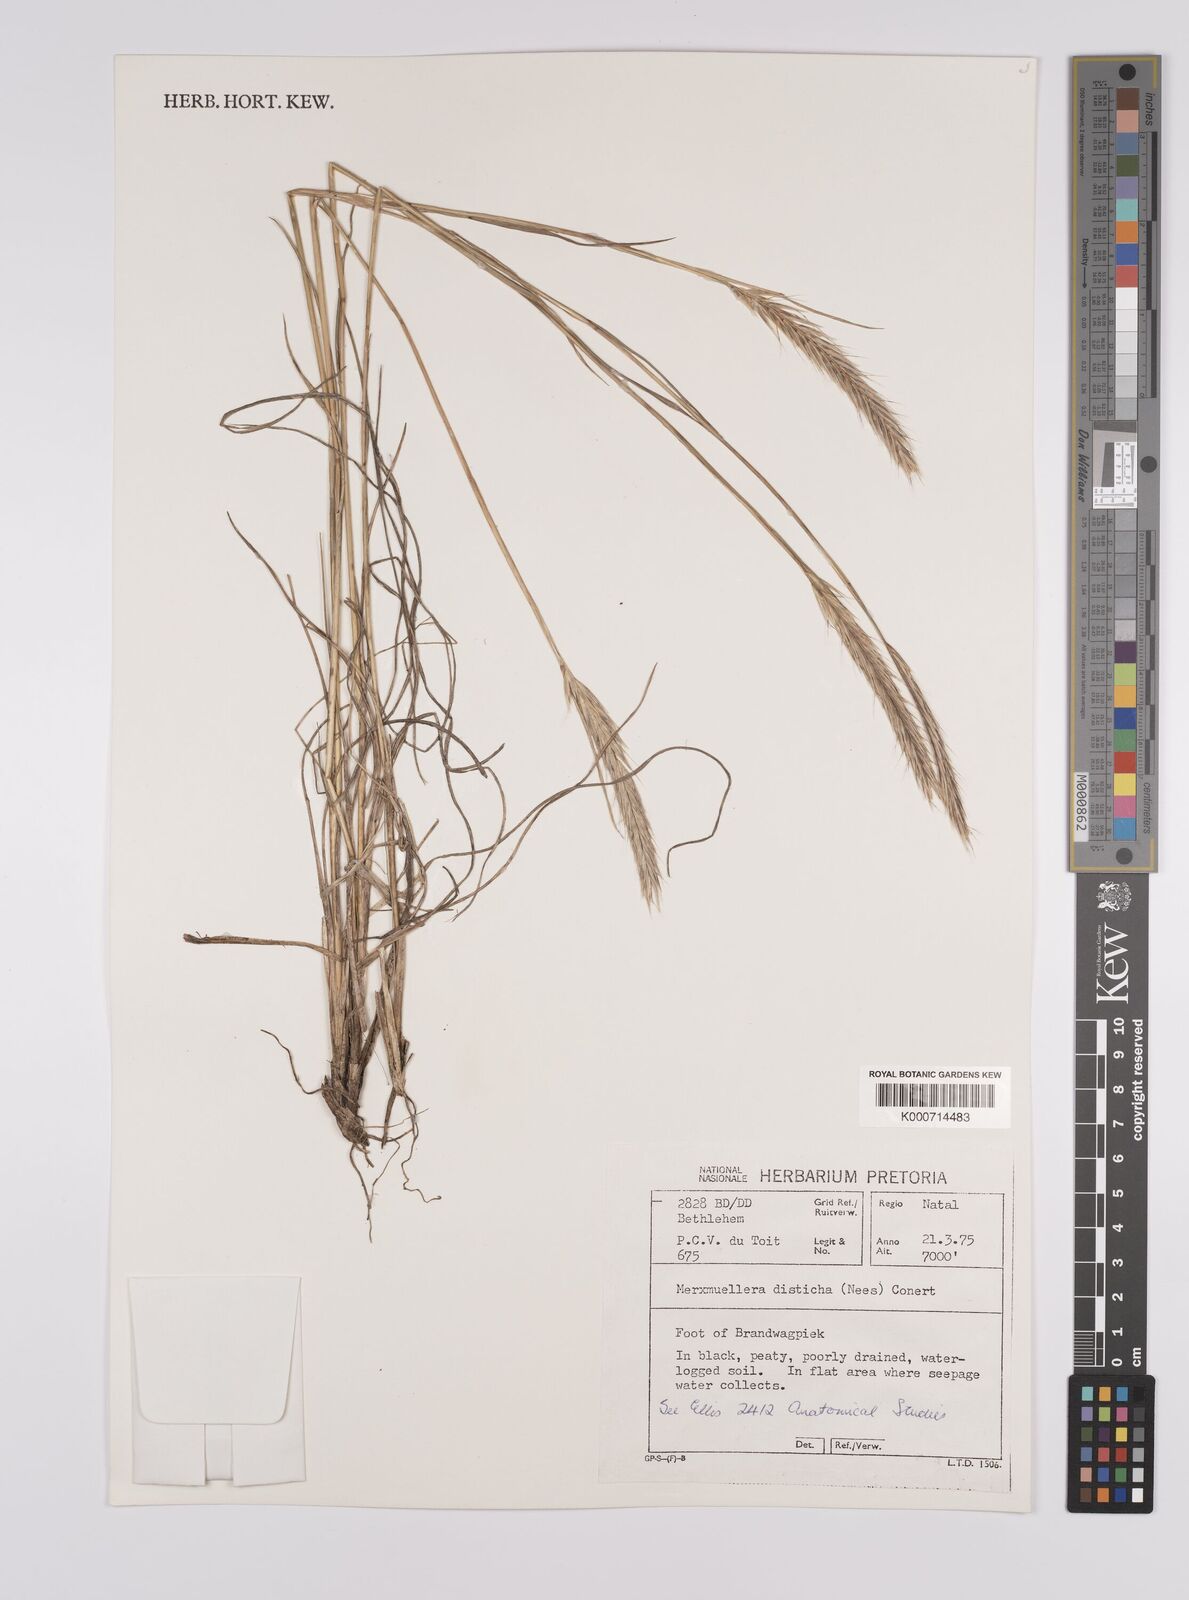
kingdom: Plantae
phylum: Tracheophyta
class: Liliopsida
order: Poales
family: Poaceae
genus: Tenaxia
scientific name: Tenaxia disticha
